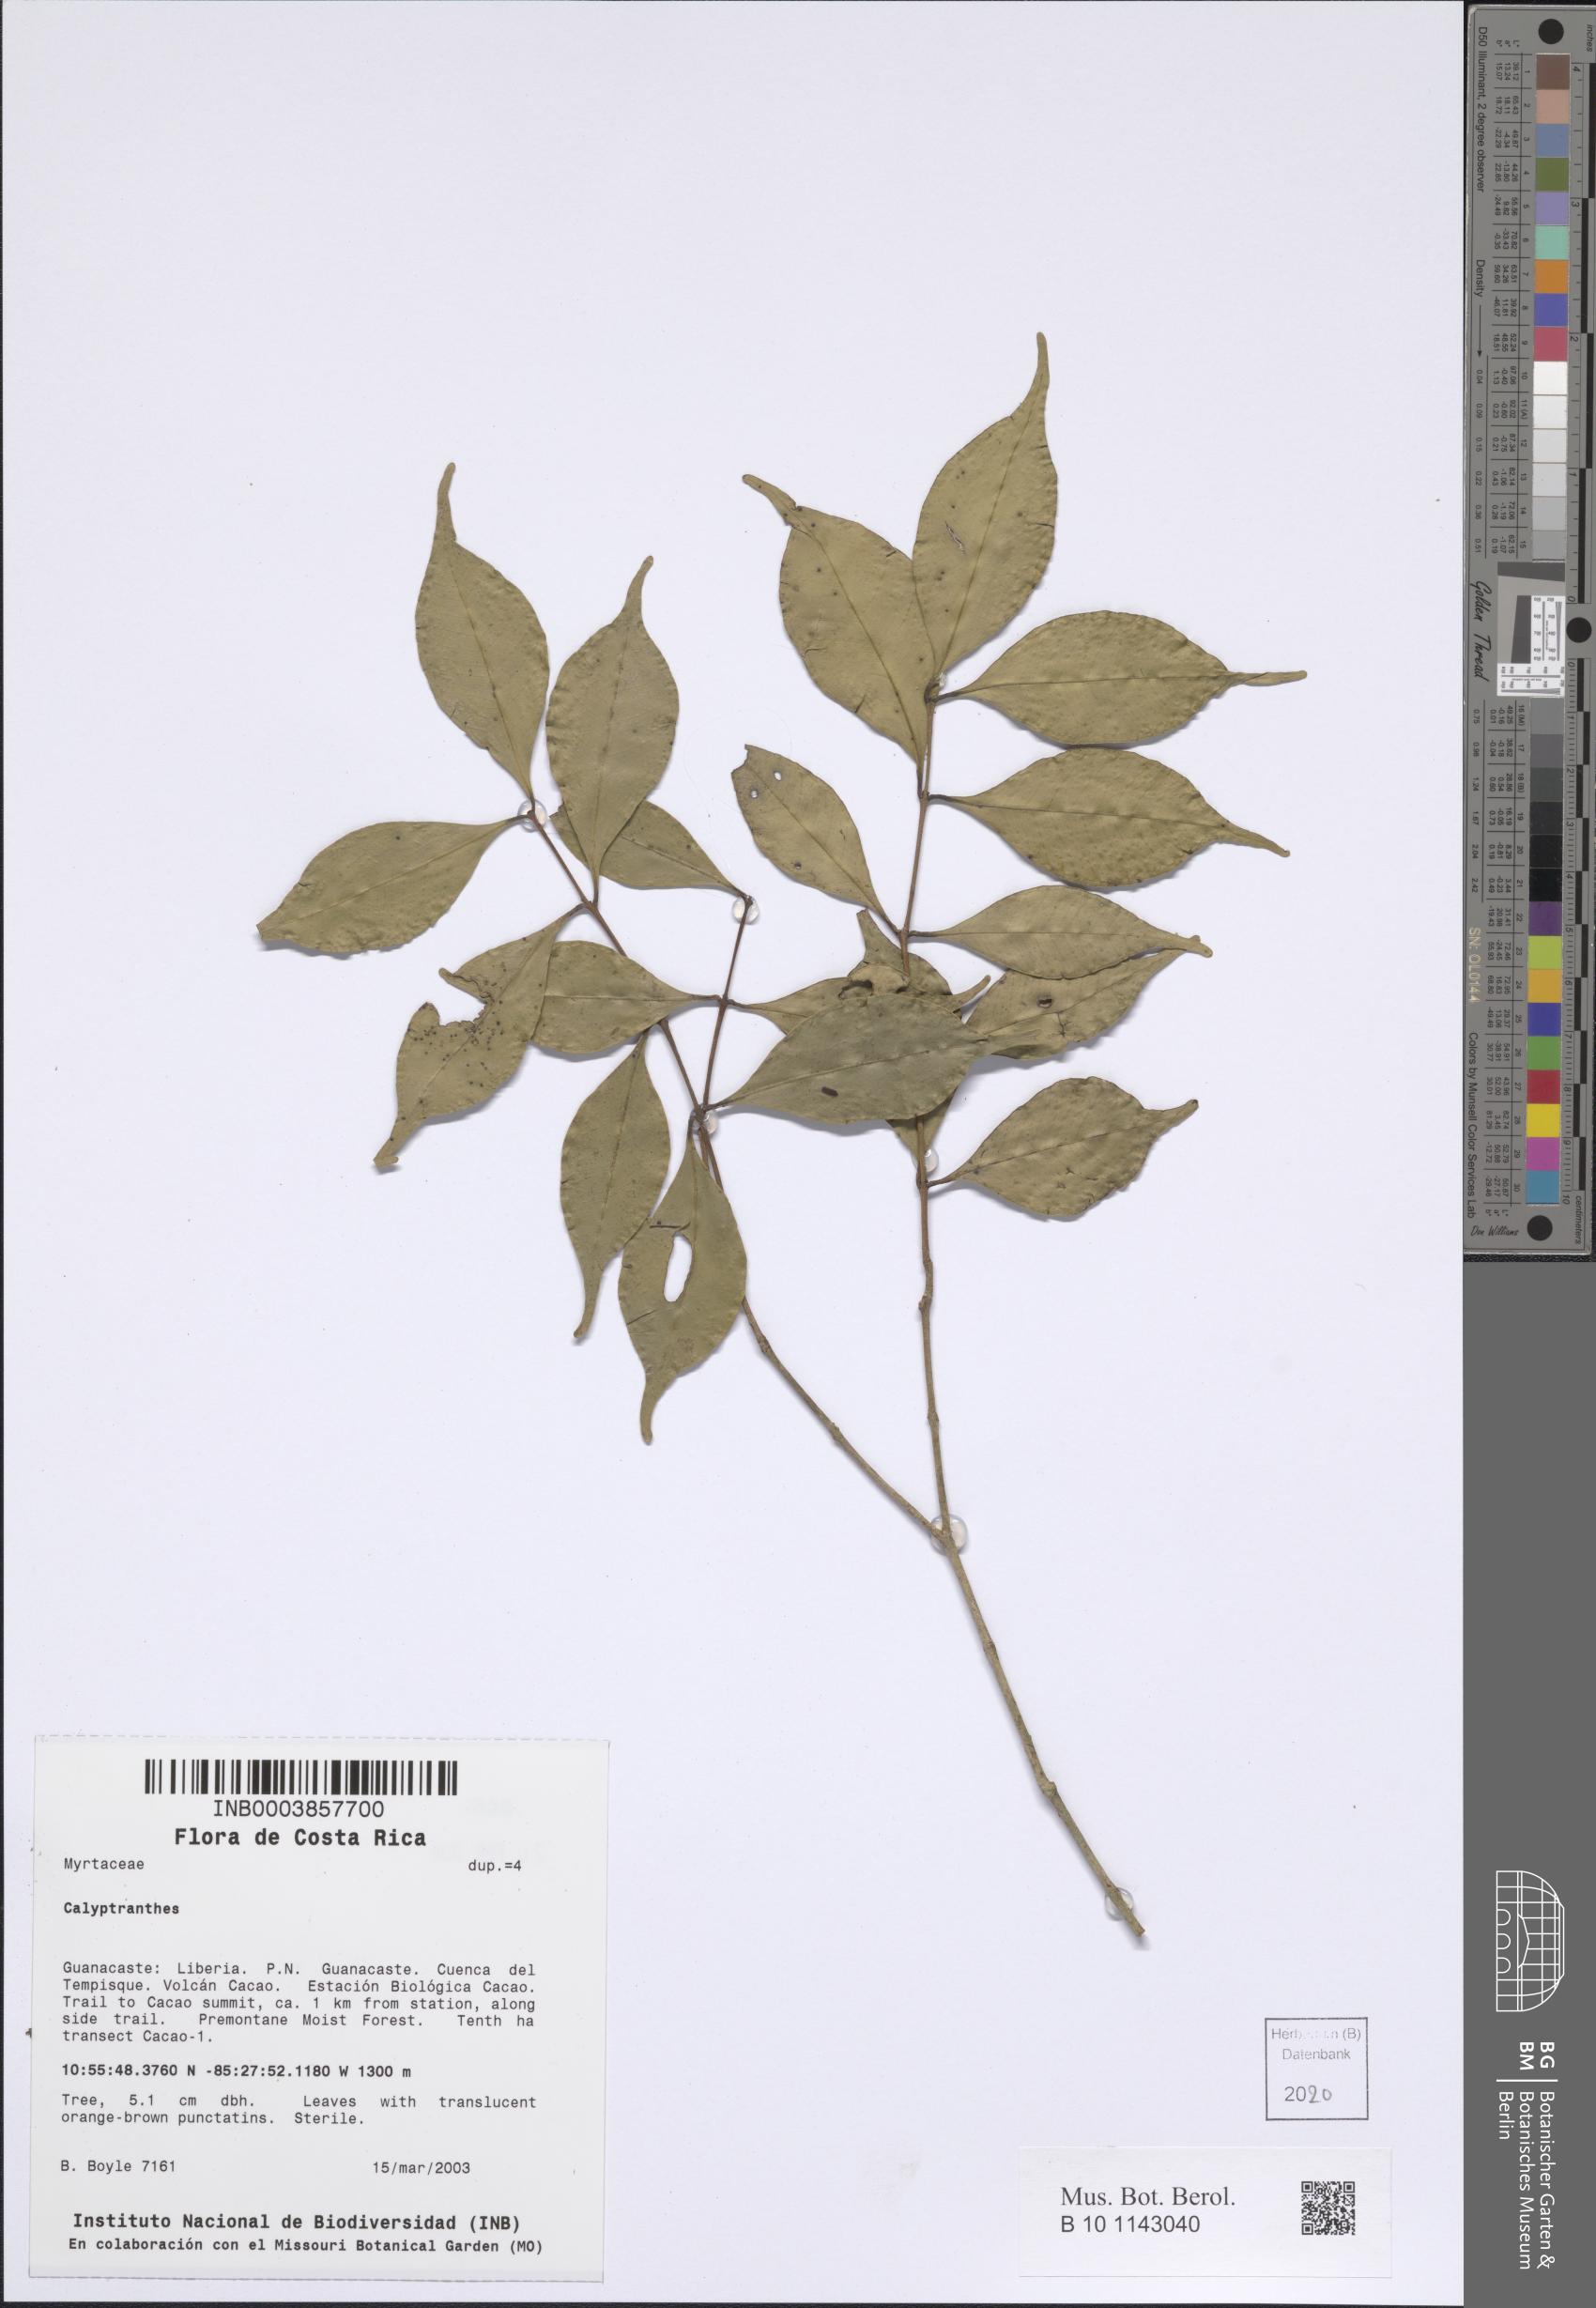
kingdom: Plantae
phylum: Tracheophyta
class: Magnoliopsida
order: Myrtales
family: Myrtaceae
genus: Calyptranthes
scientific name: Calyptranthes
